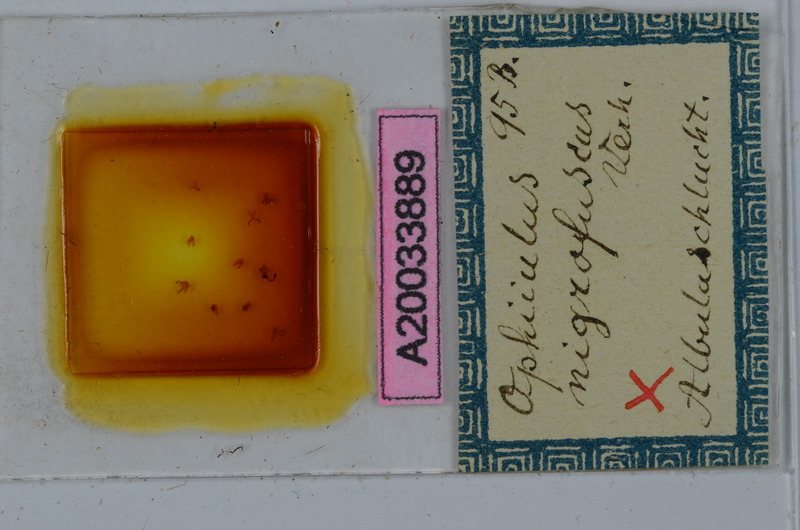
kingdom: Animalia
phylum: Arthropoda
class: Diplopoda
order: Julida
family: Julidae
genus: Ophyiulus
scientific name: Ophyiulus nigrofuscus
